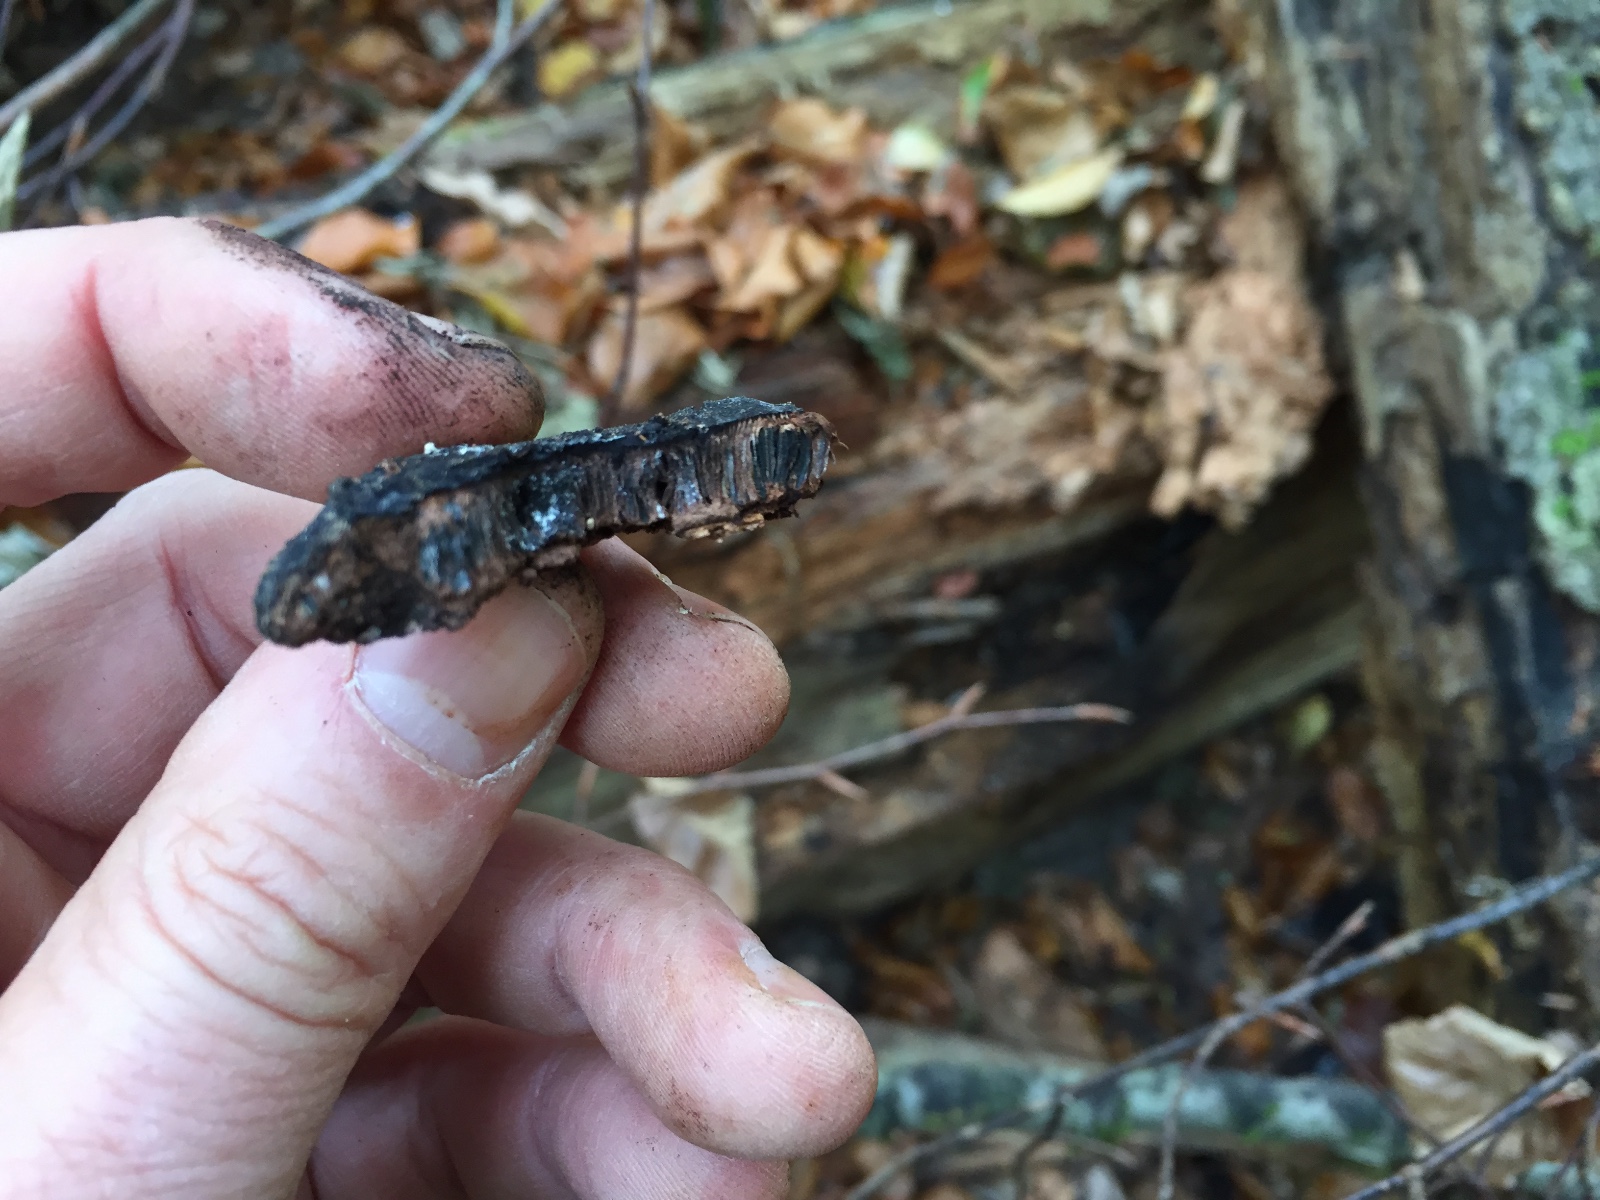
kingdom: Fungi
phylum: Ascomycota
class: Sordariomycetes
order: Boliniales
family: Boliniaceae
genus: Camarops
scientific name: Camarops polysperma
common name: elle-kulsnegl
